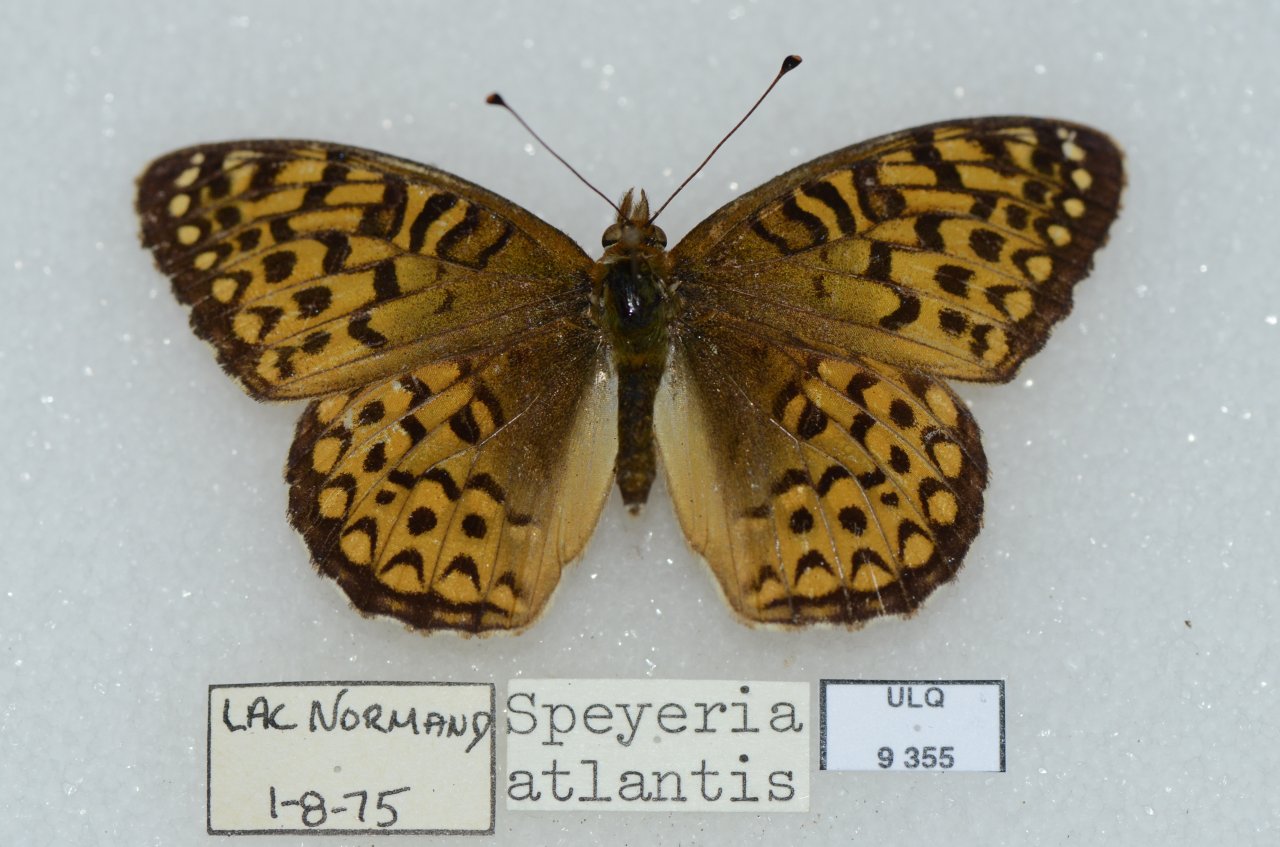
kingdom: Animalia
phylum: Arthropoda
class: Insecta
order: Lepidoptera
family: Nymphalidae
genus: Speyeria
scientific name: Speyeria atlantis
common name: Atlantis Fritillary
